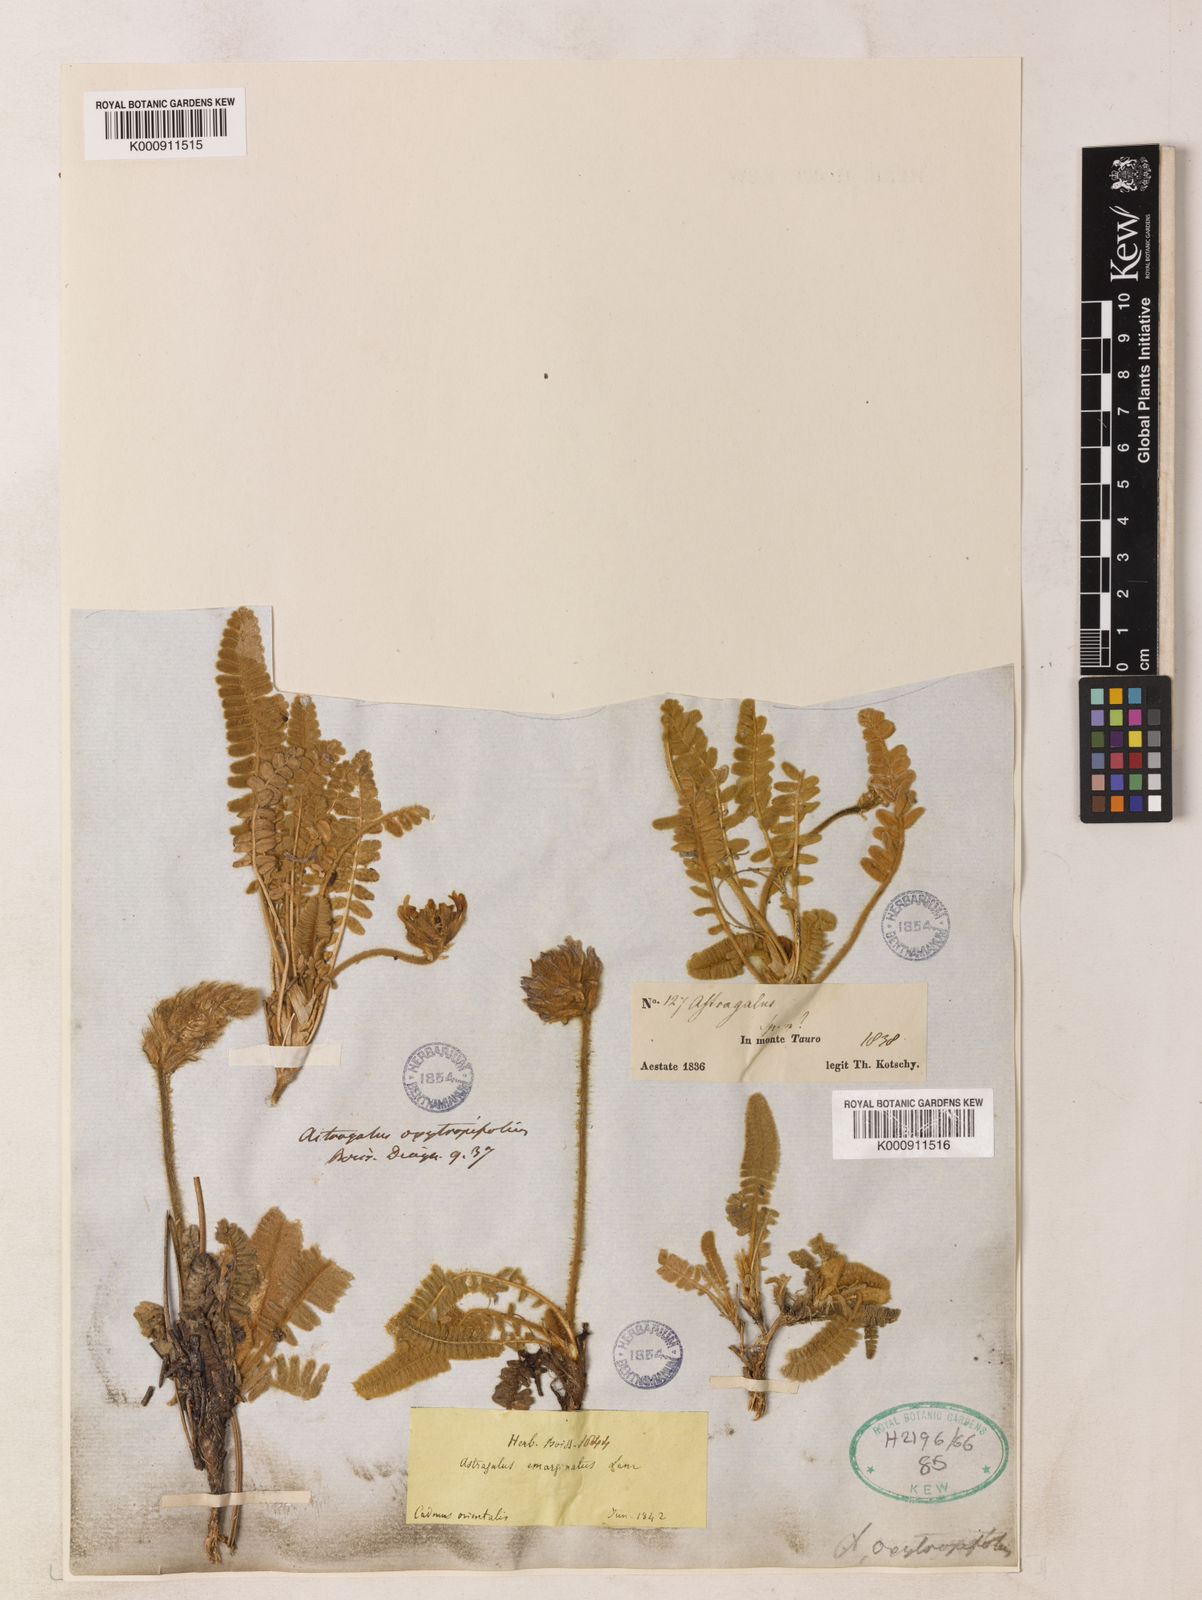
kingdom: Plantae
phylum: Tracheophyta
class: Magnoliopsida
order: Fabales
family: Fabaceae
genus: Astragalus
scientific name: Astragalus oxytropifolius
